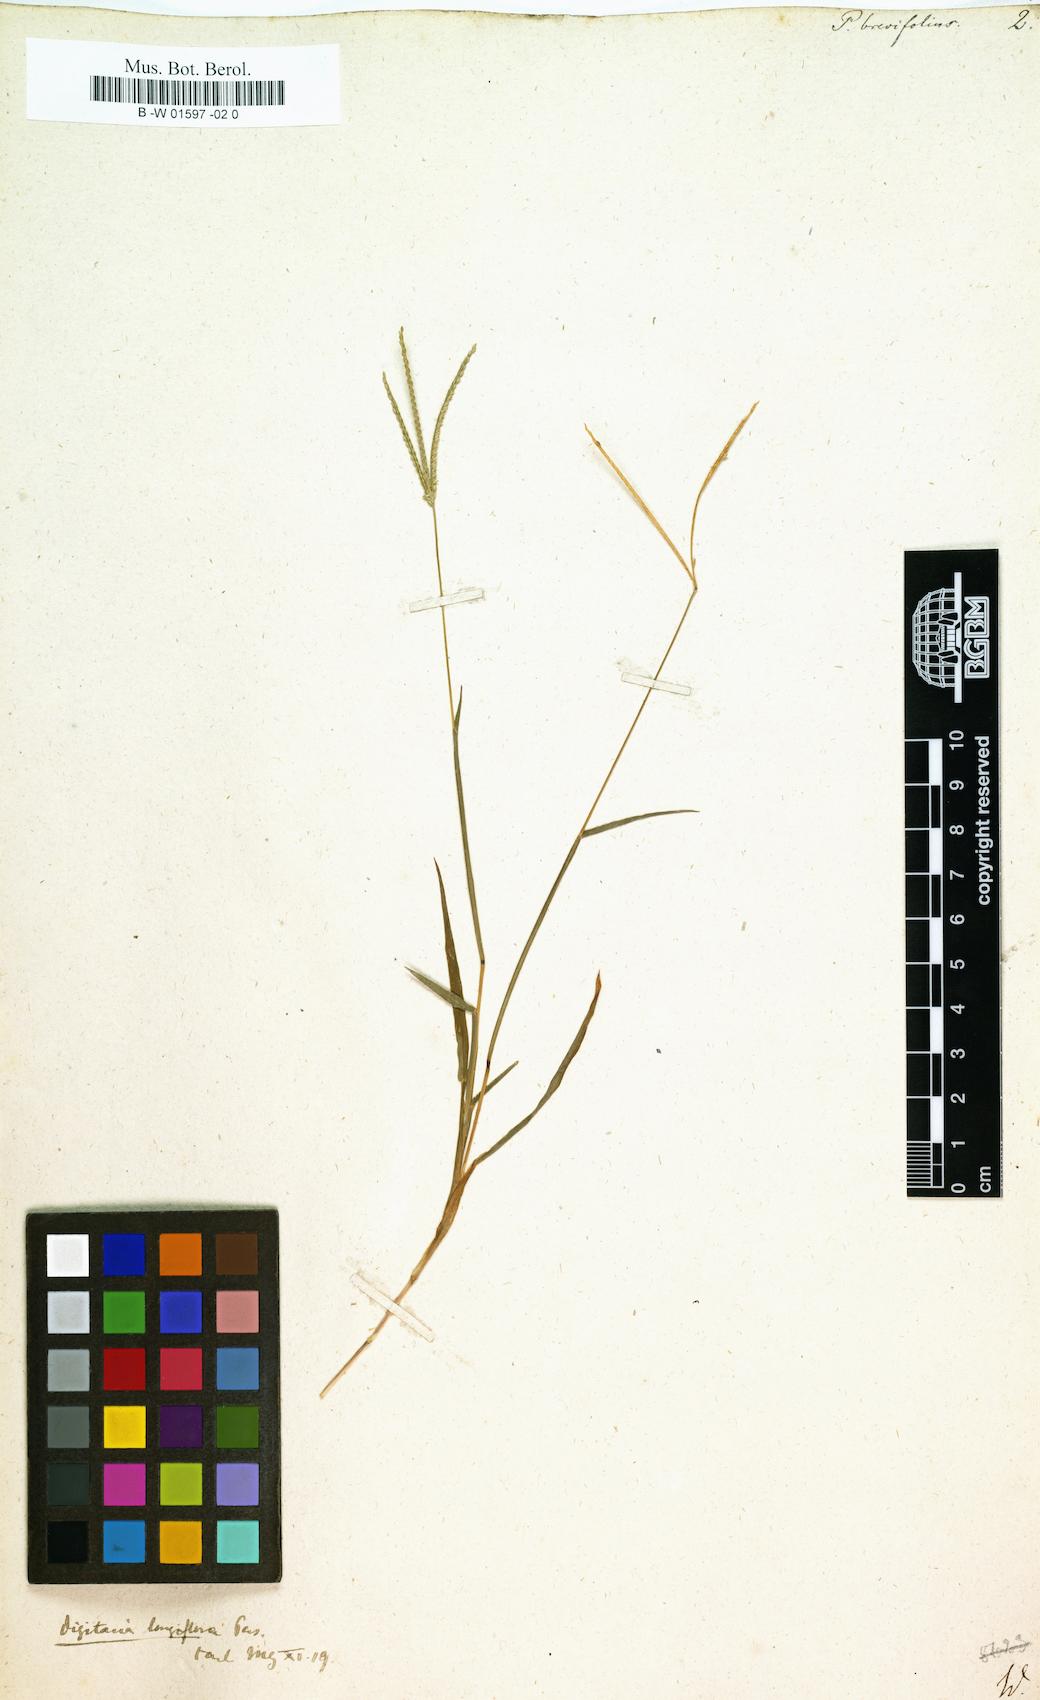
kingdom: Plantae
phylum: Tracheophyta
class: Liliopsida
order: Poales
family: Poaceae
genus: Paspalus
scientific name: Paspalus
